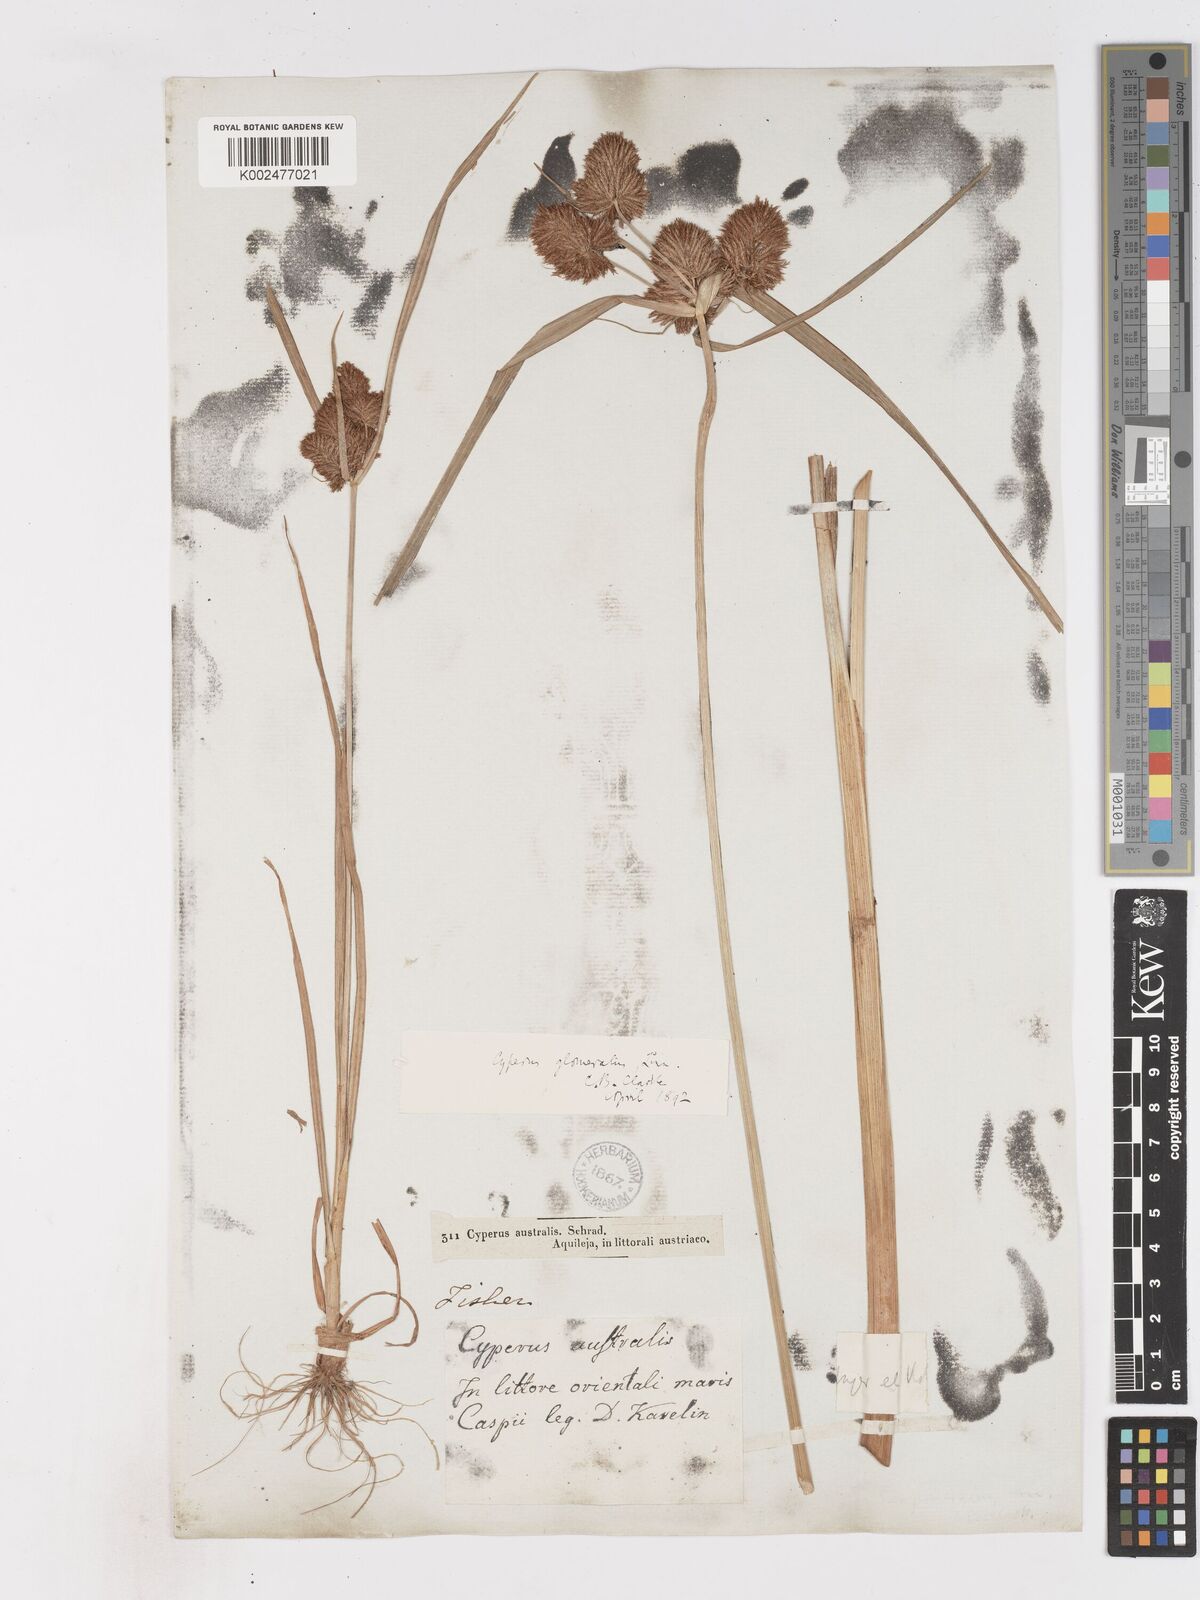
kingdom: Plantae
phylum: Tracheophyta
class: Liliopsida
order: Poales
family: Cyperaceae
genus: Cyperus
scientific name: Cyperus glomeratus
